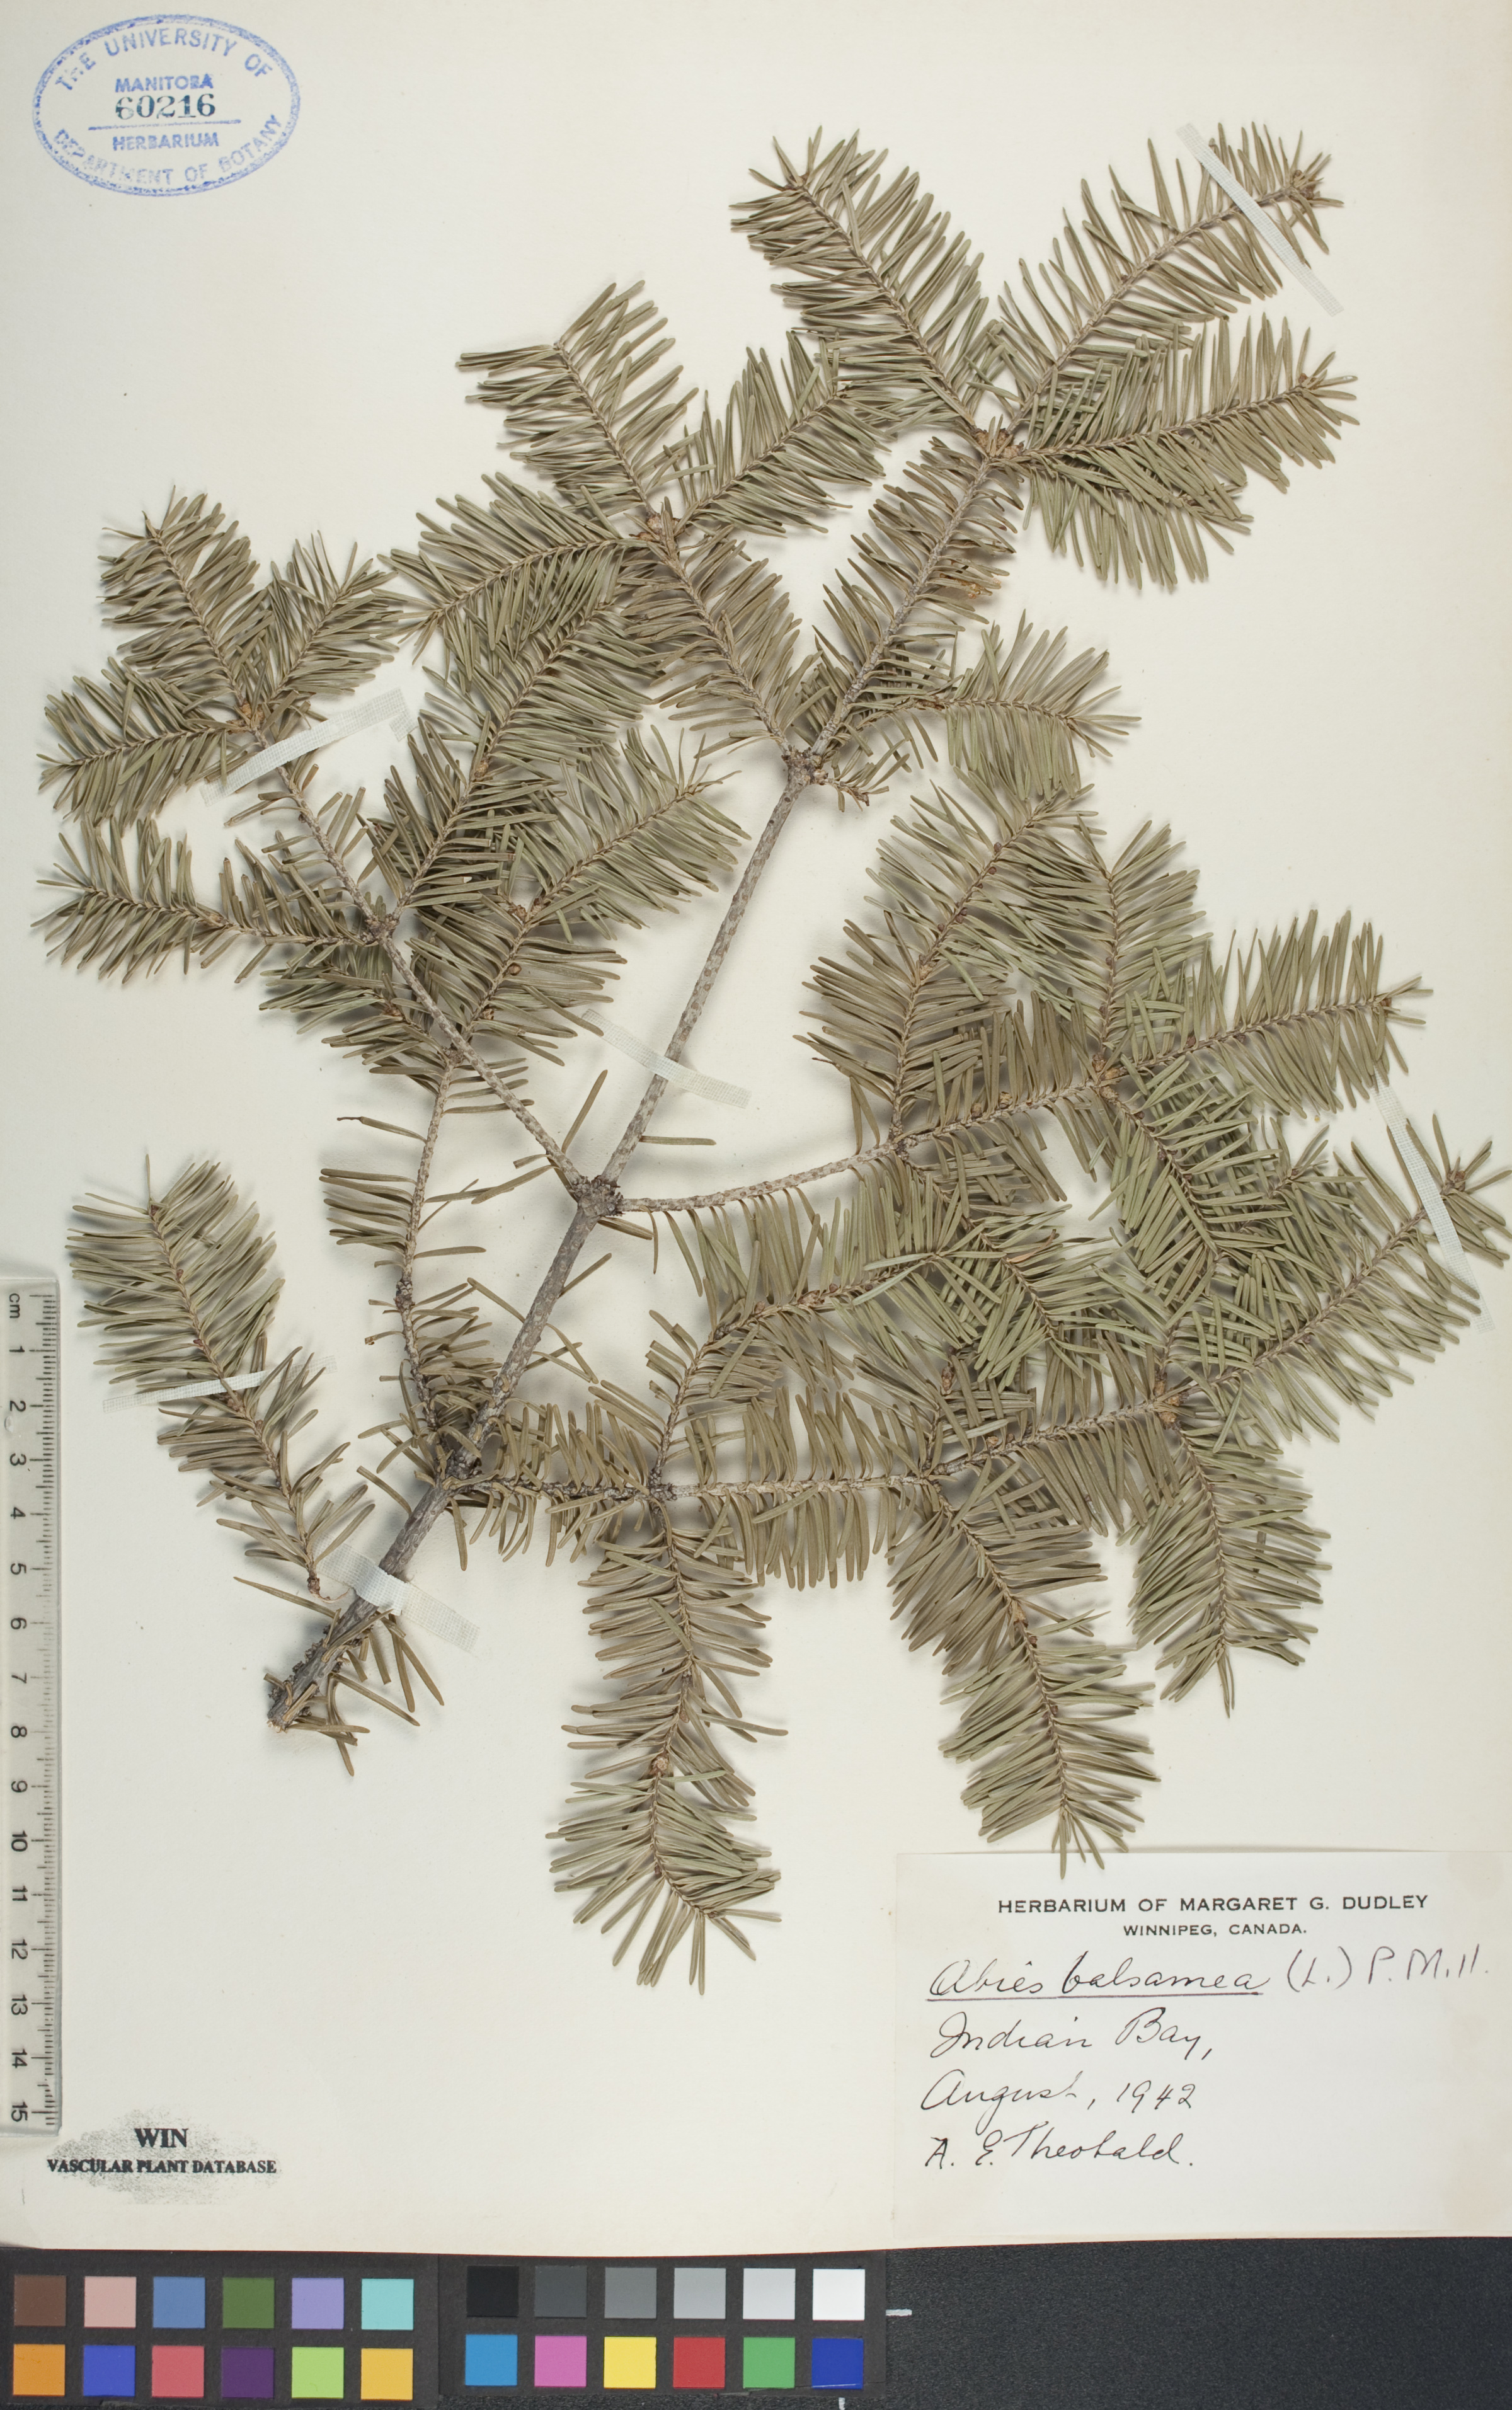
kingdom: Plantae
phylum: Tracheophyta
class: Pinopsida
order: Pinales
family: Pinaceae
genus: Abies
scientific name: Abies balsamea
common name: Balsam fir
